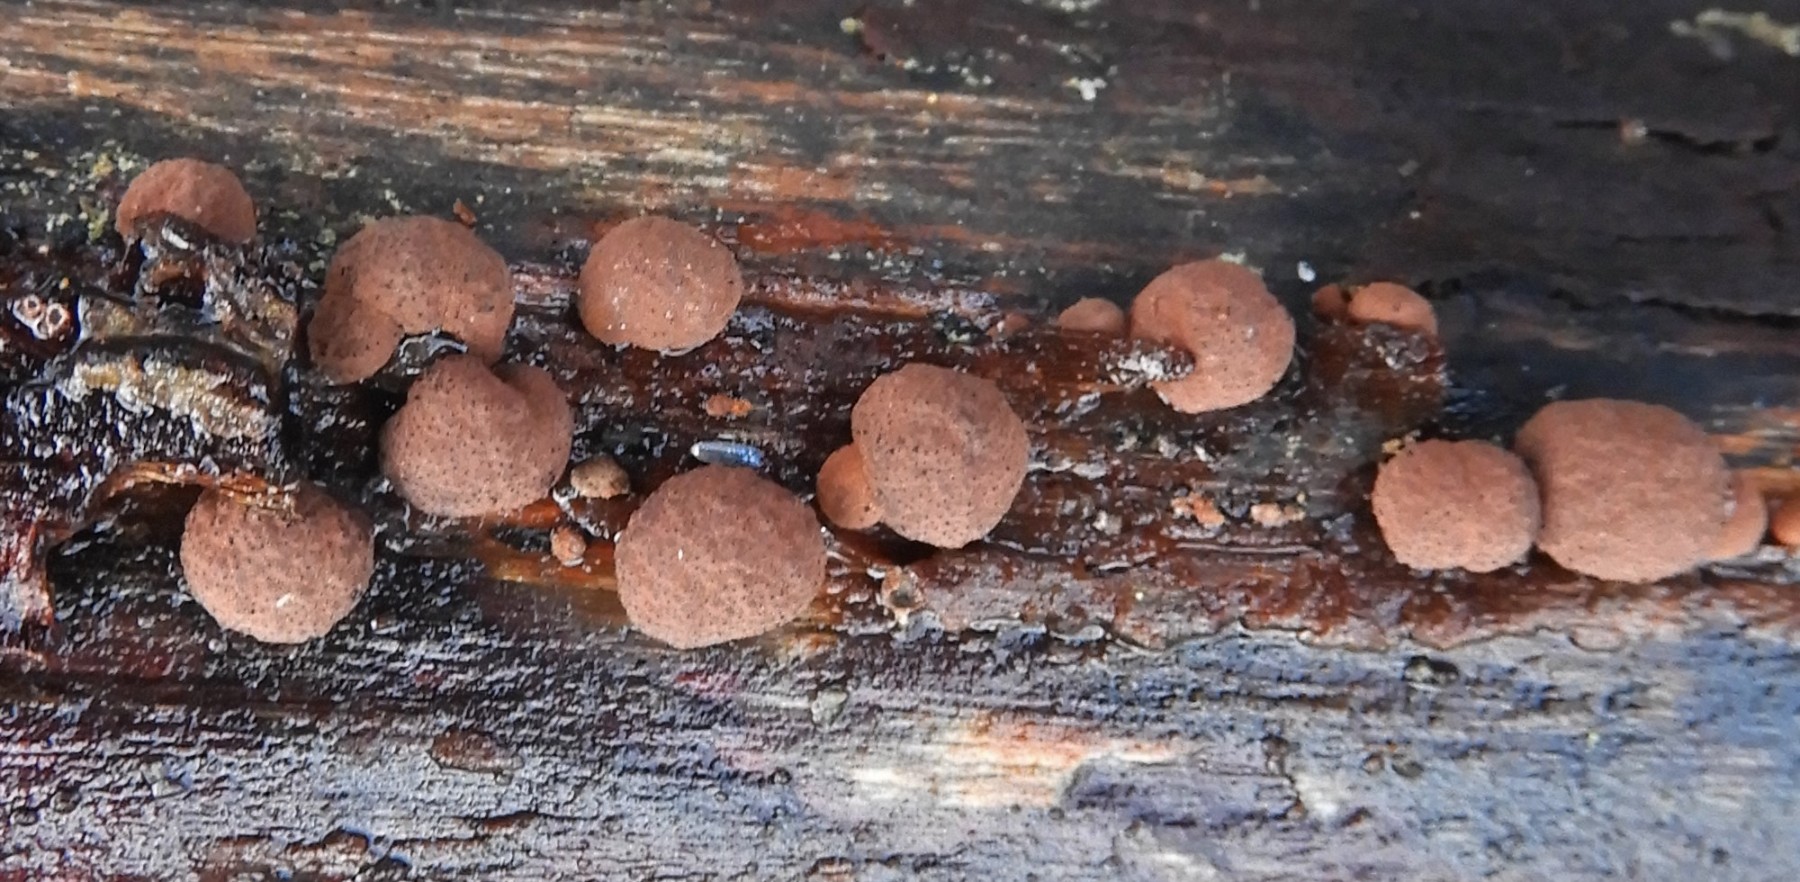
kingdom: Fungi
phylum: Ascomycota
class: Sordariomycetes
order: Xylariales
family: Hypoxylaceae
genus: Hypoxylon
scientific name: Hypoxylon fragiforme
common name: kuljordbær
